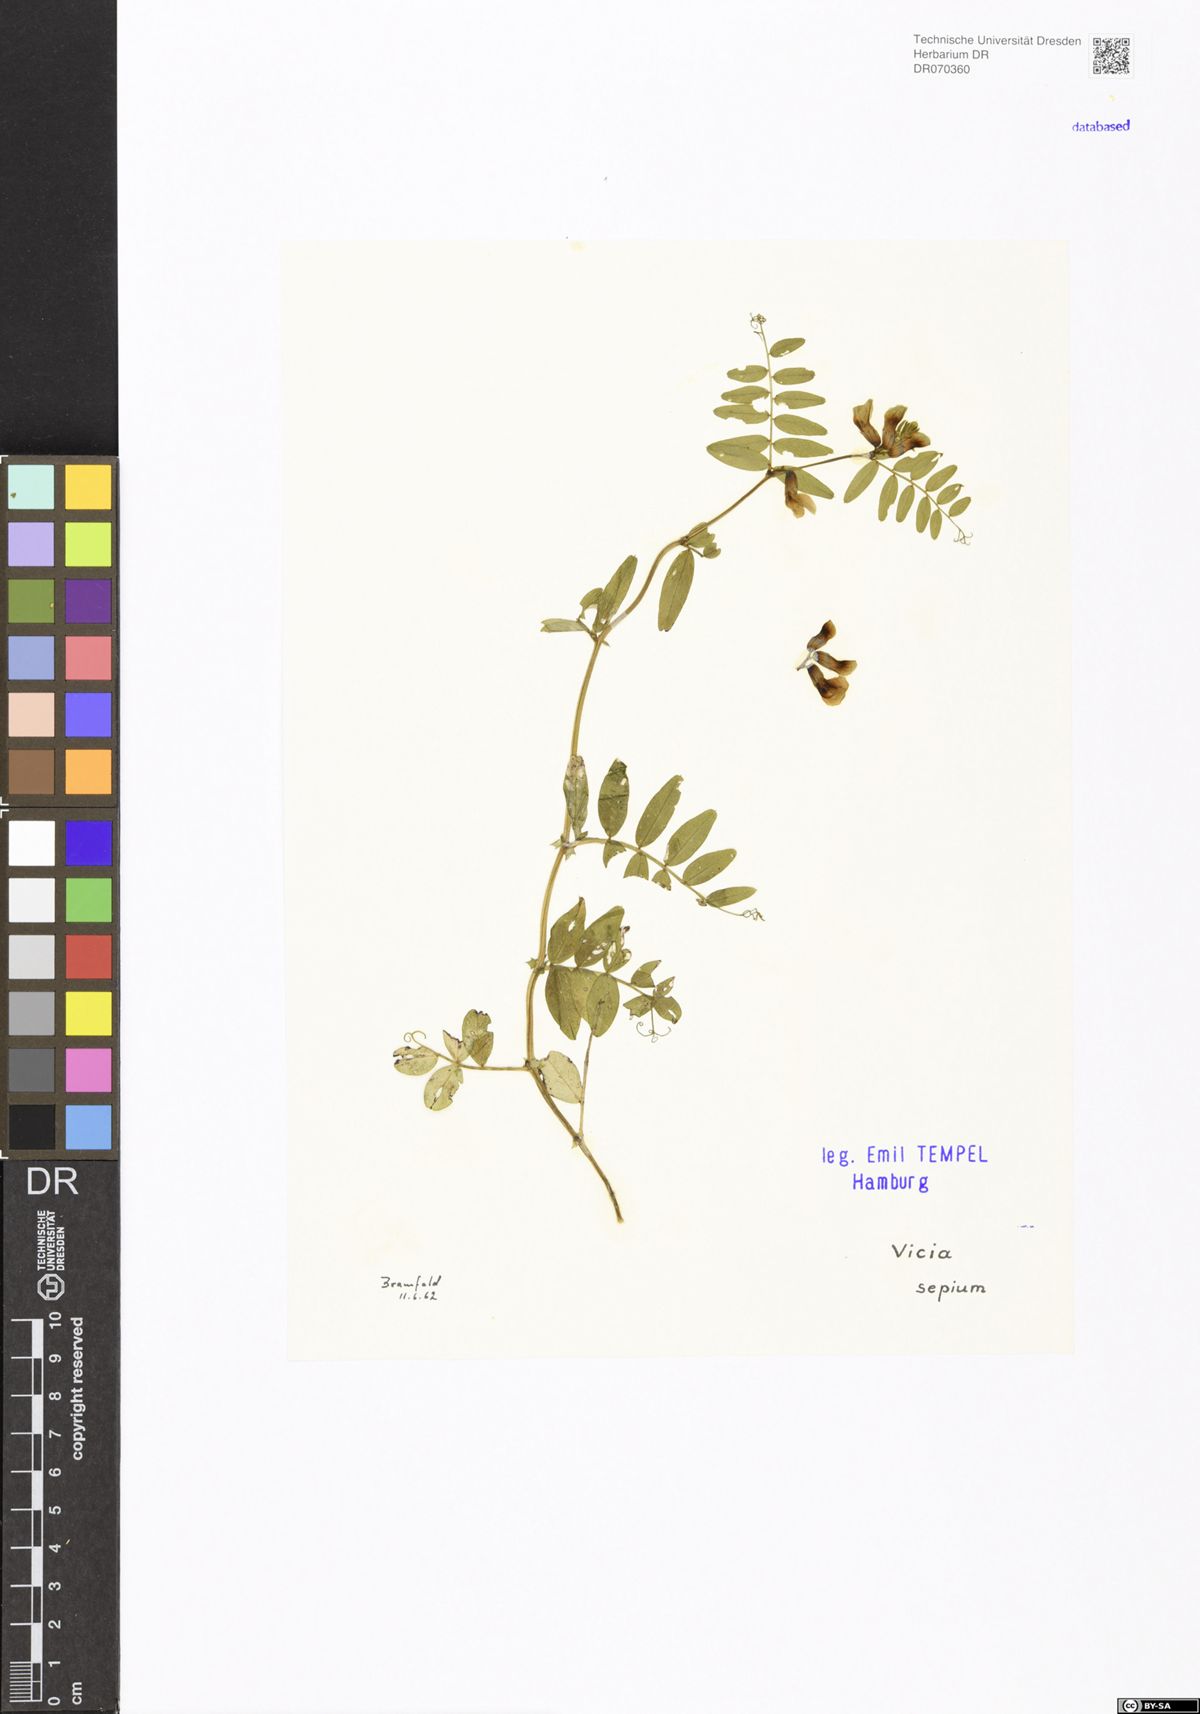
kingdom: Plantae
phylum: Tracheophyta
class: Magnoliopsida
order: Fabales
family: Fabaceae
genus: Vicia
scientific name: Vicia sepium
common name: Bush vetch
